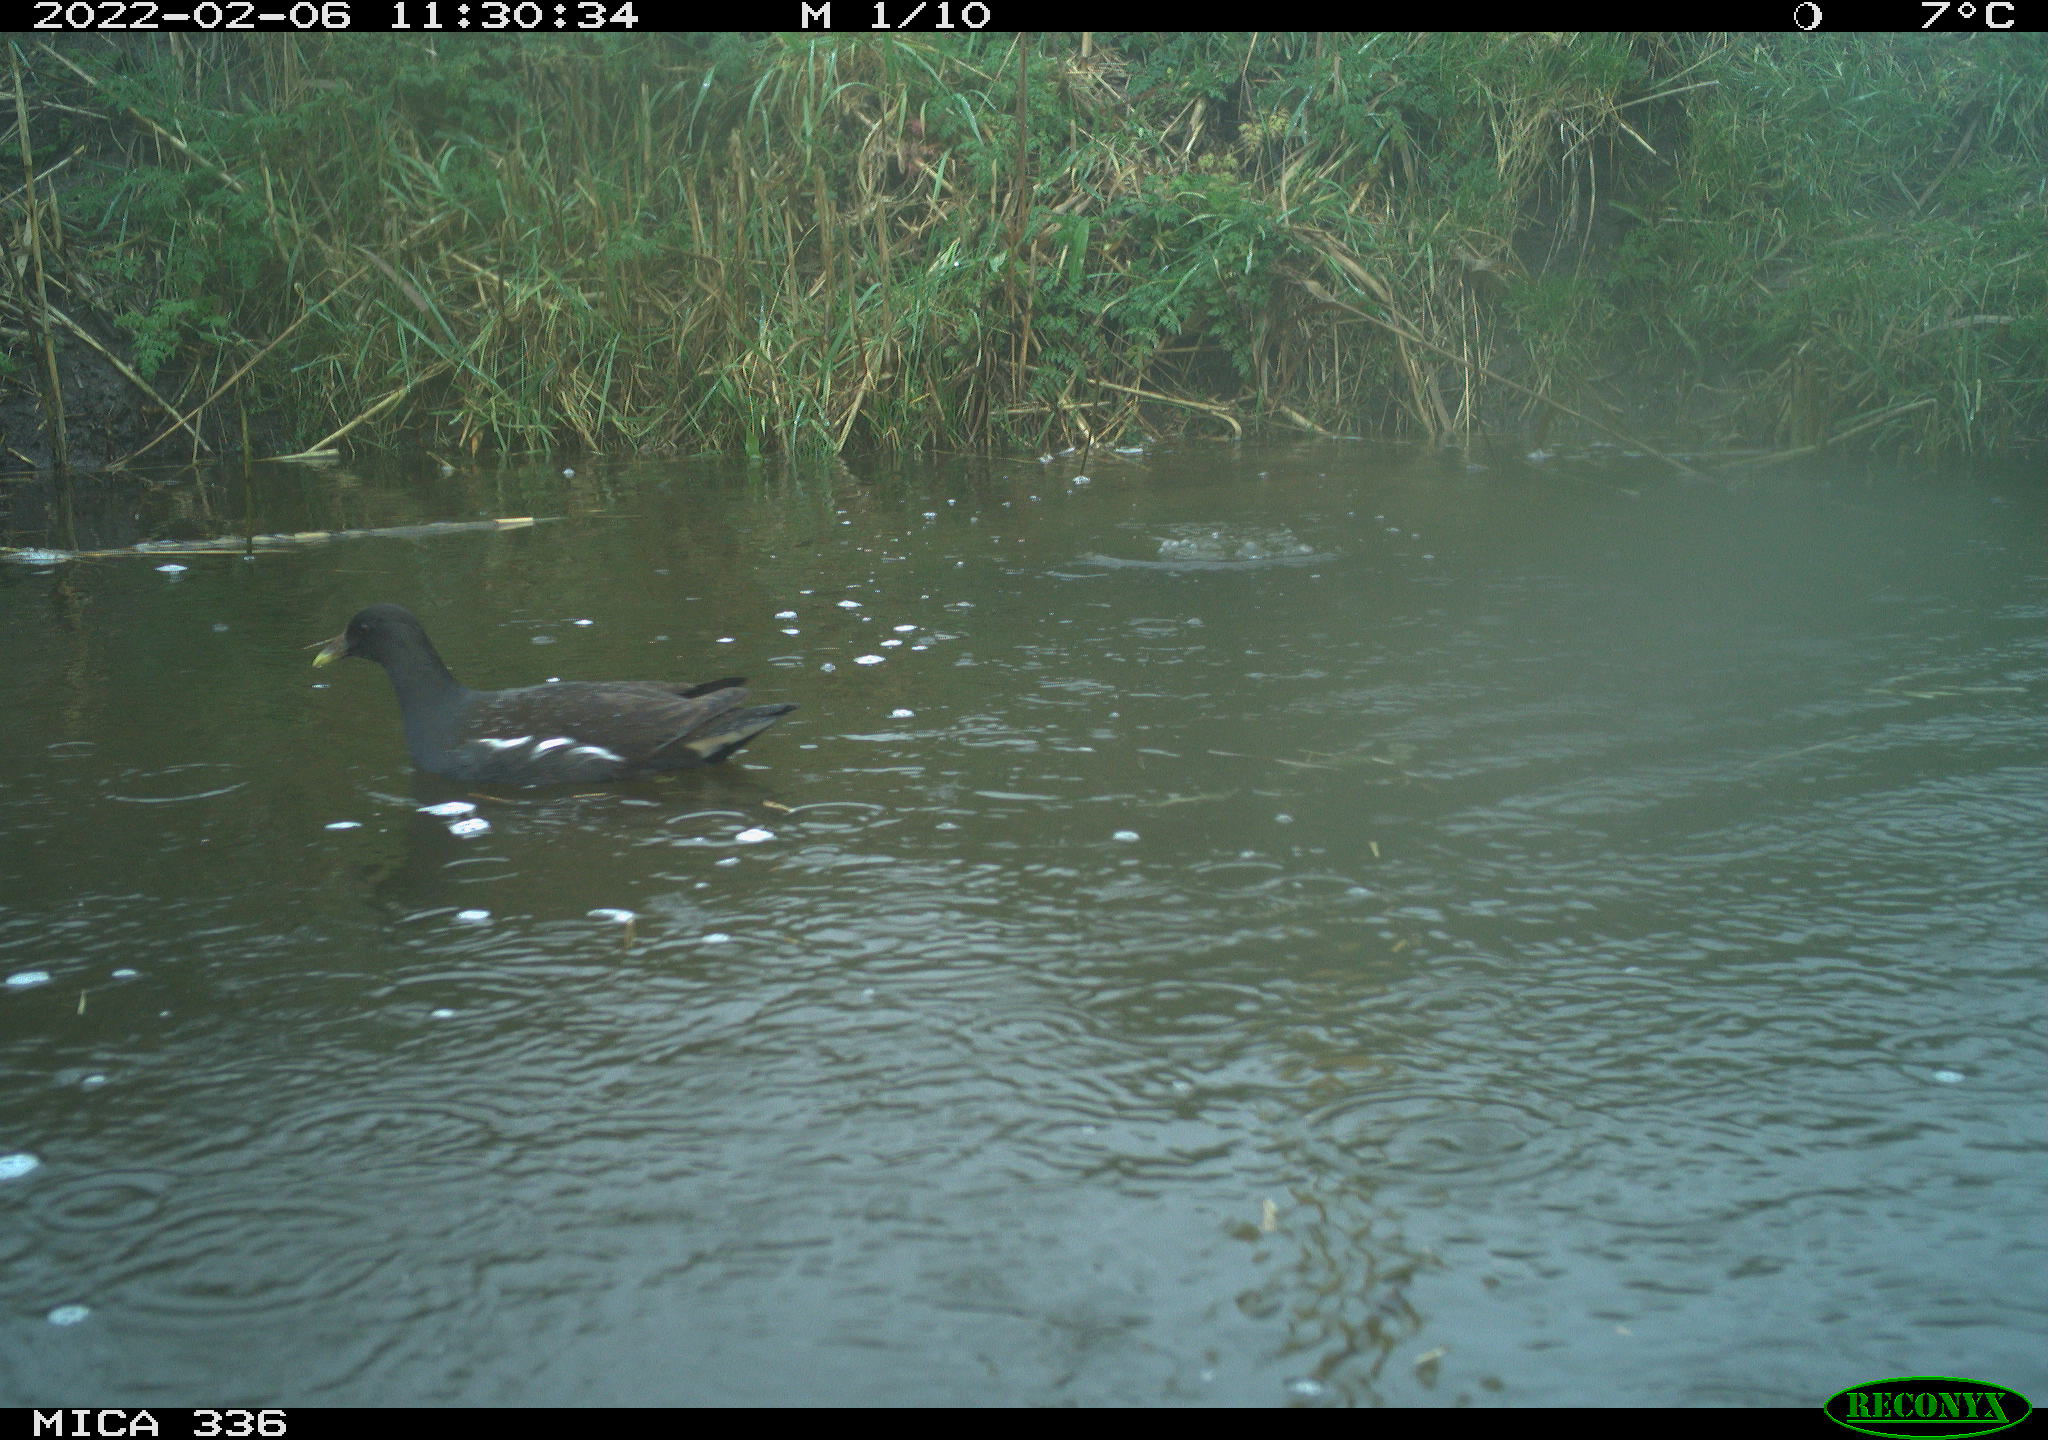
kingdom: Animalia
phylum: Chordata
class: Aves
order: Gruiformes
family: Rallidae
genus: Gallinula
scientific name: Gallinula chloropus
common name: Common moorhen
